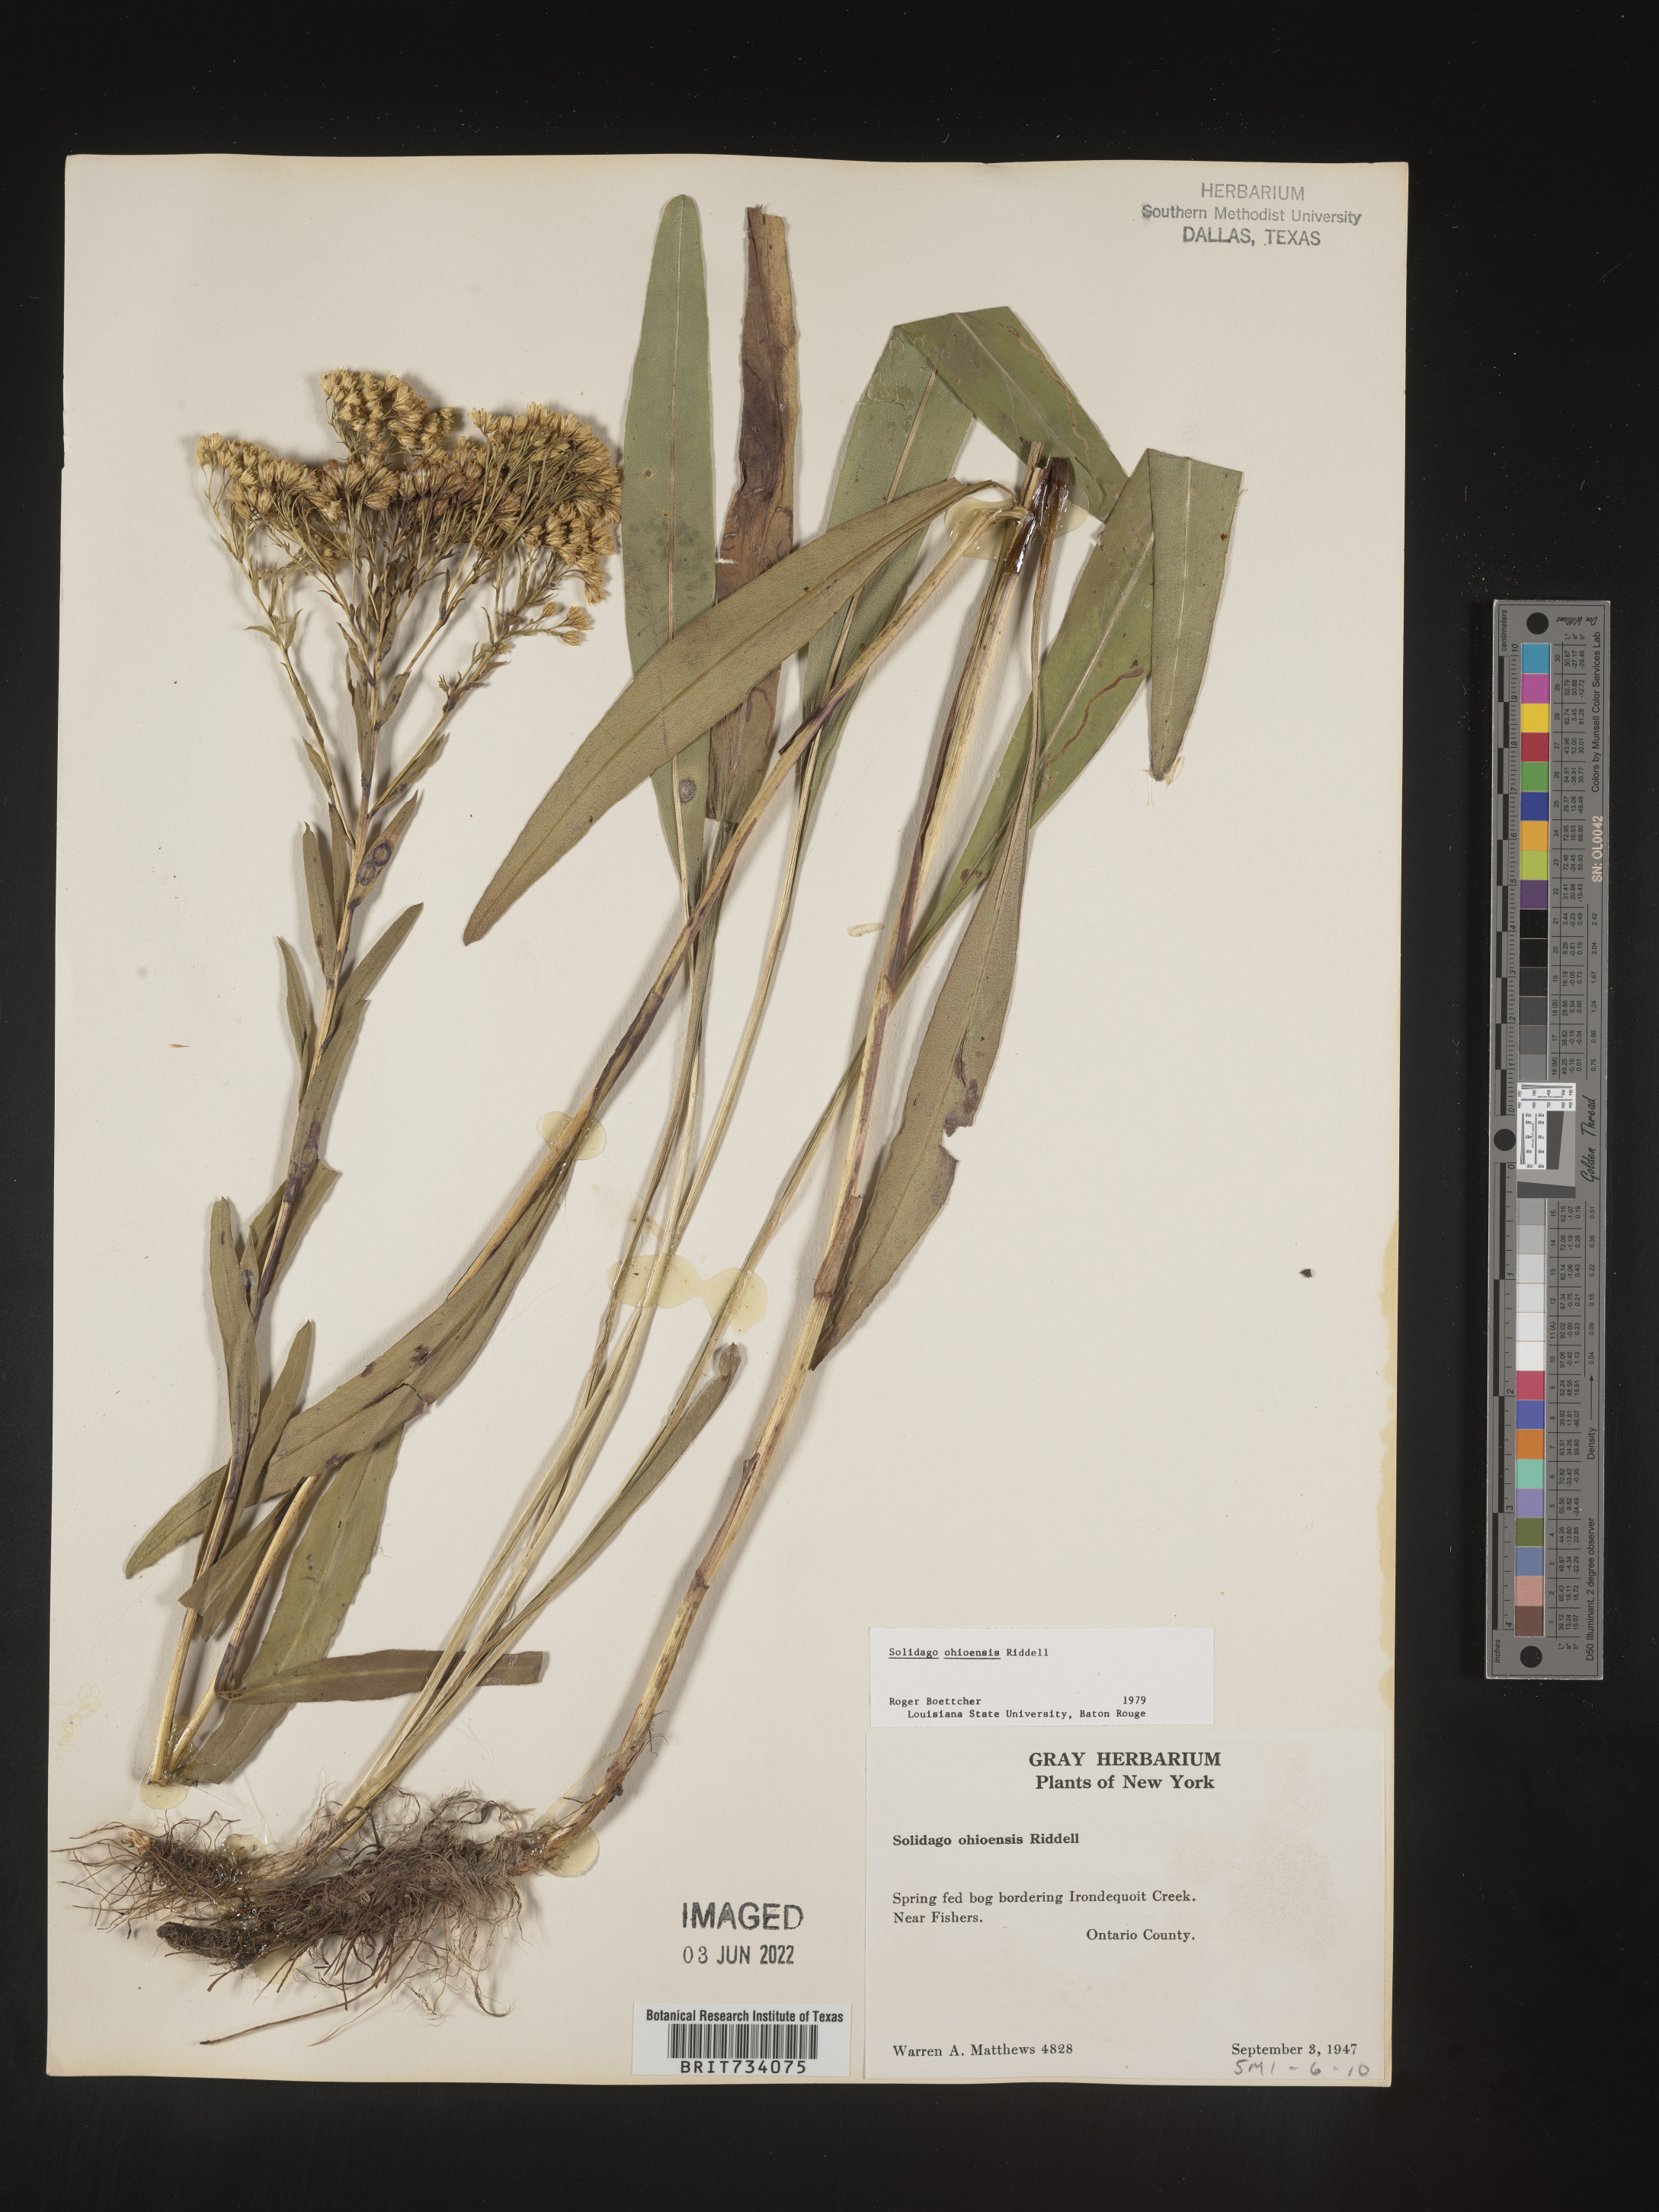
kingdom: Plantae
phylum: Tracheophyta
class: Magnoliopsida
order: Asterales
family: Asteraceae
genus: Solidago
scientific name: Solidago ohioensis
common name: Ohio goldenrod
